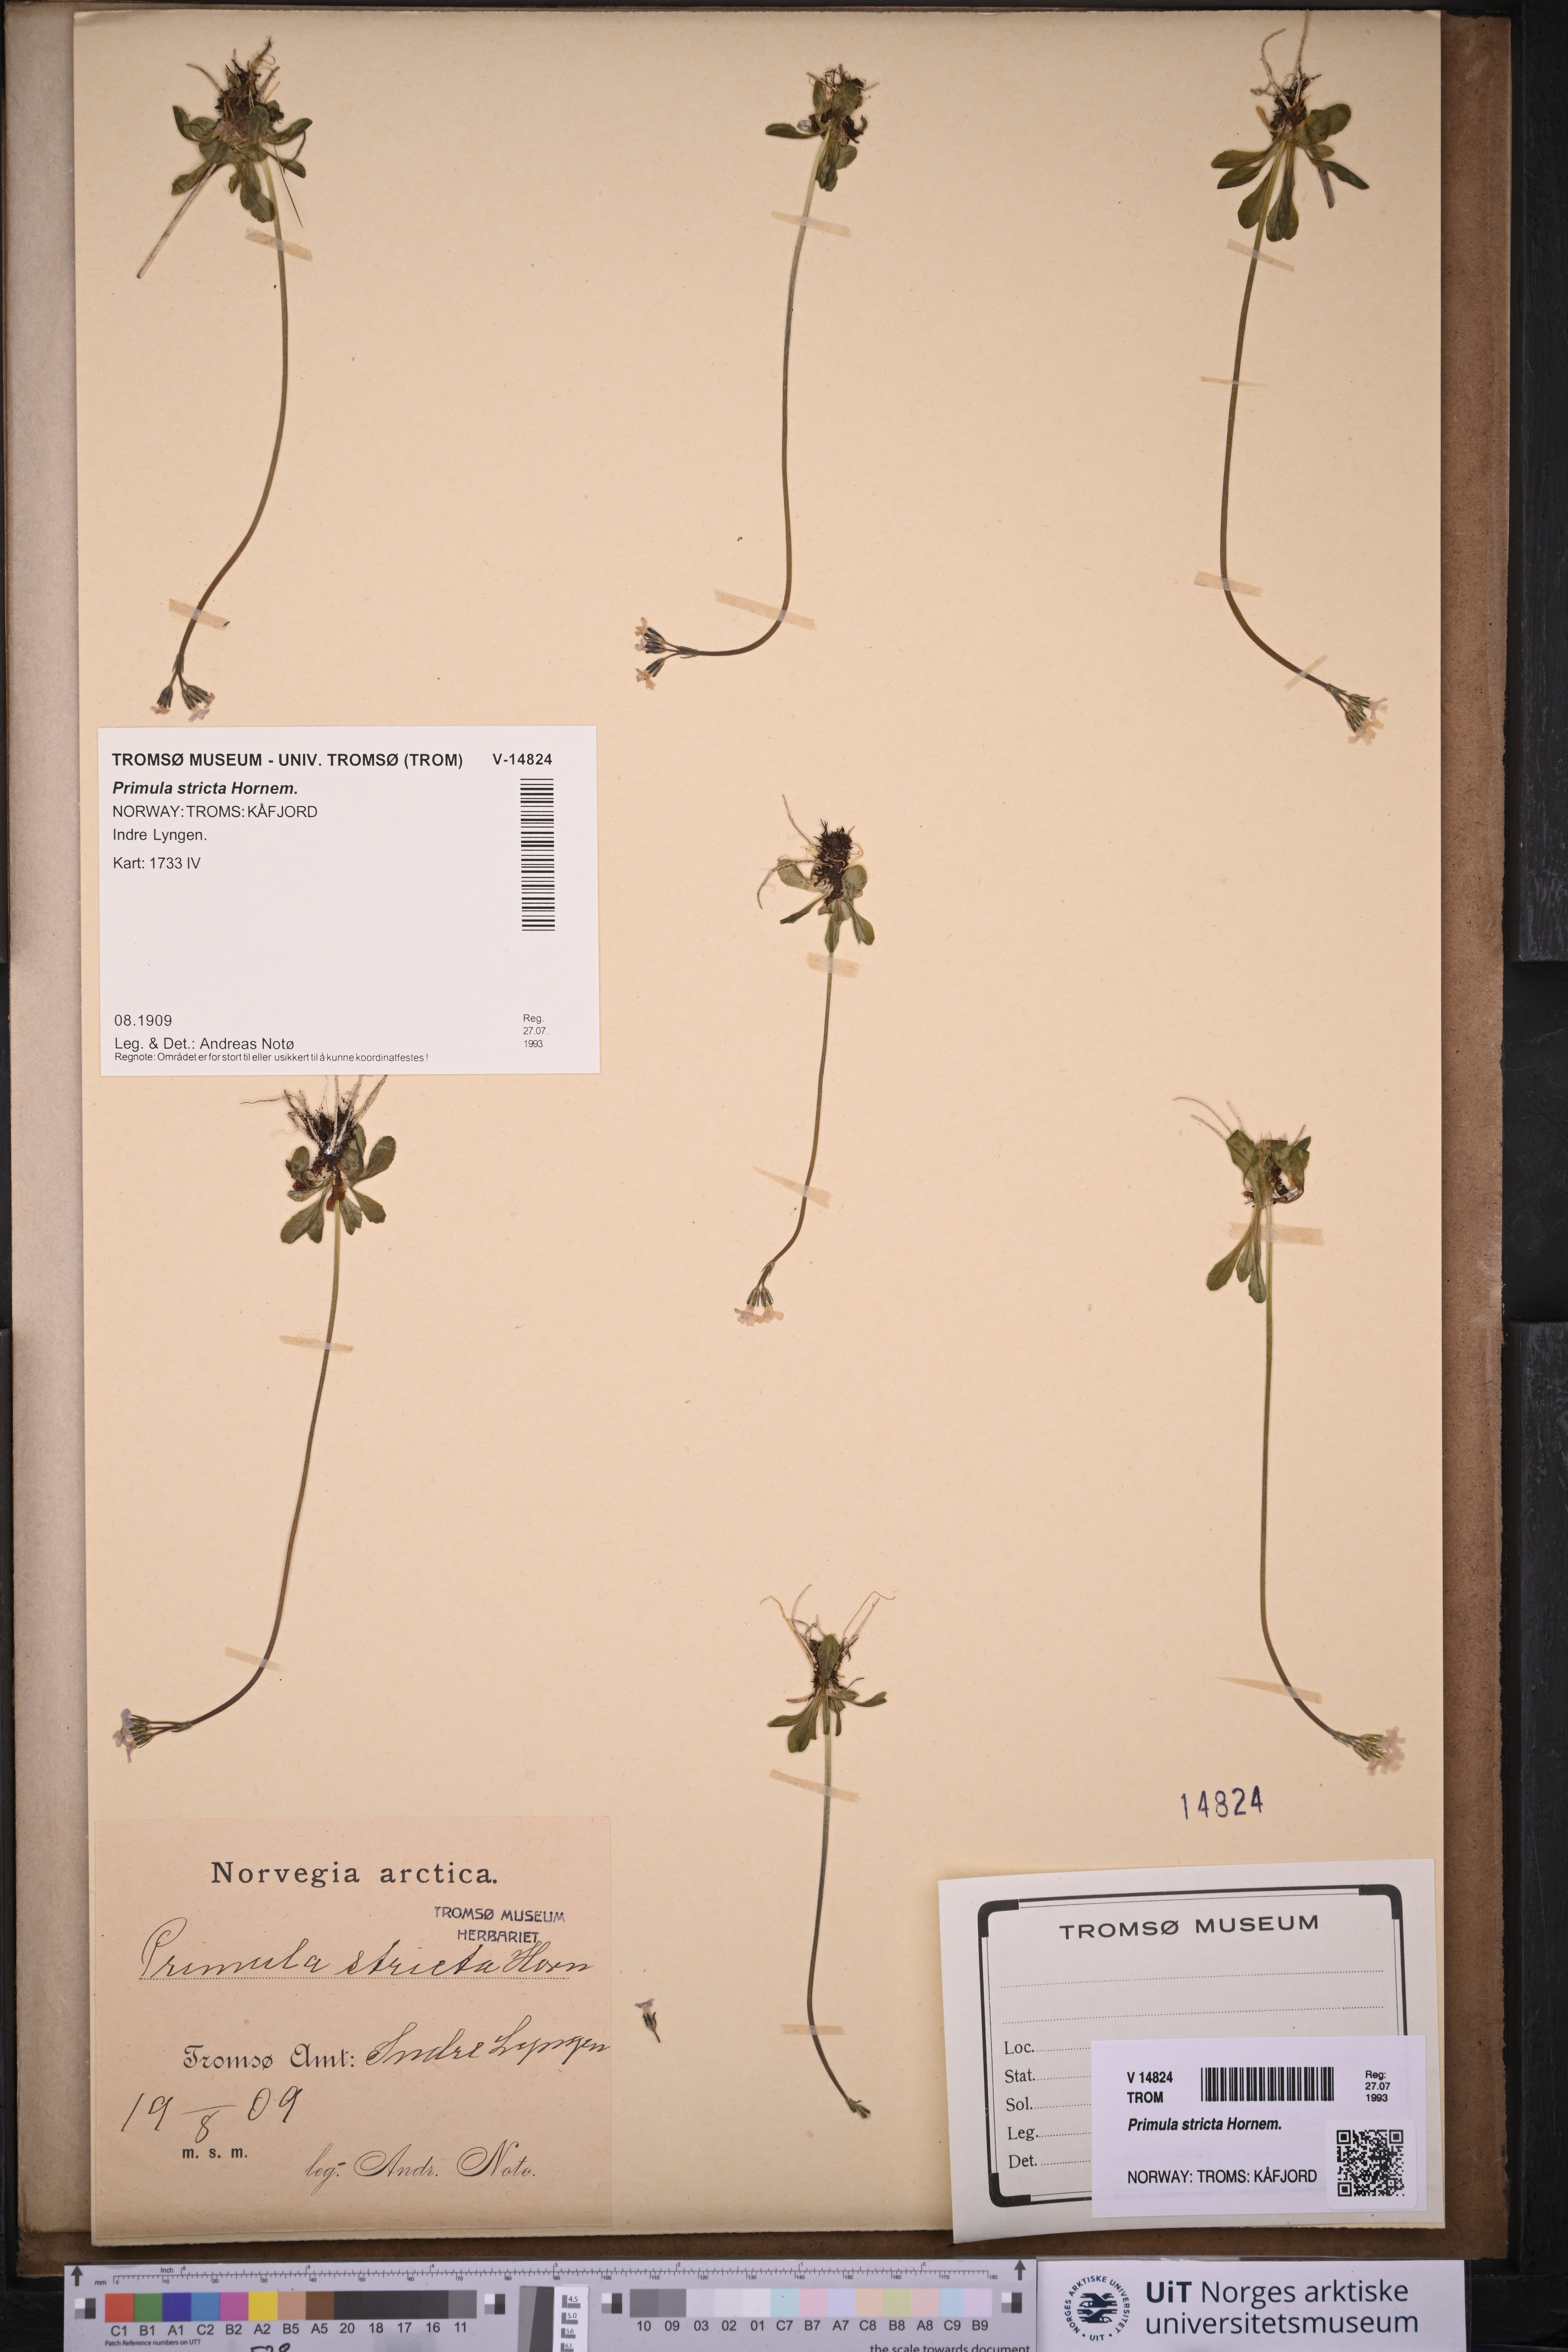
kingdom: Plantae
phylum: Tracheophyta
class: Magnoliopsida
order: Ericales
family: Primulaceae
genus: Primula
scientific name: Primula stricta
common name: Coastal primrose
